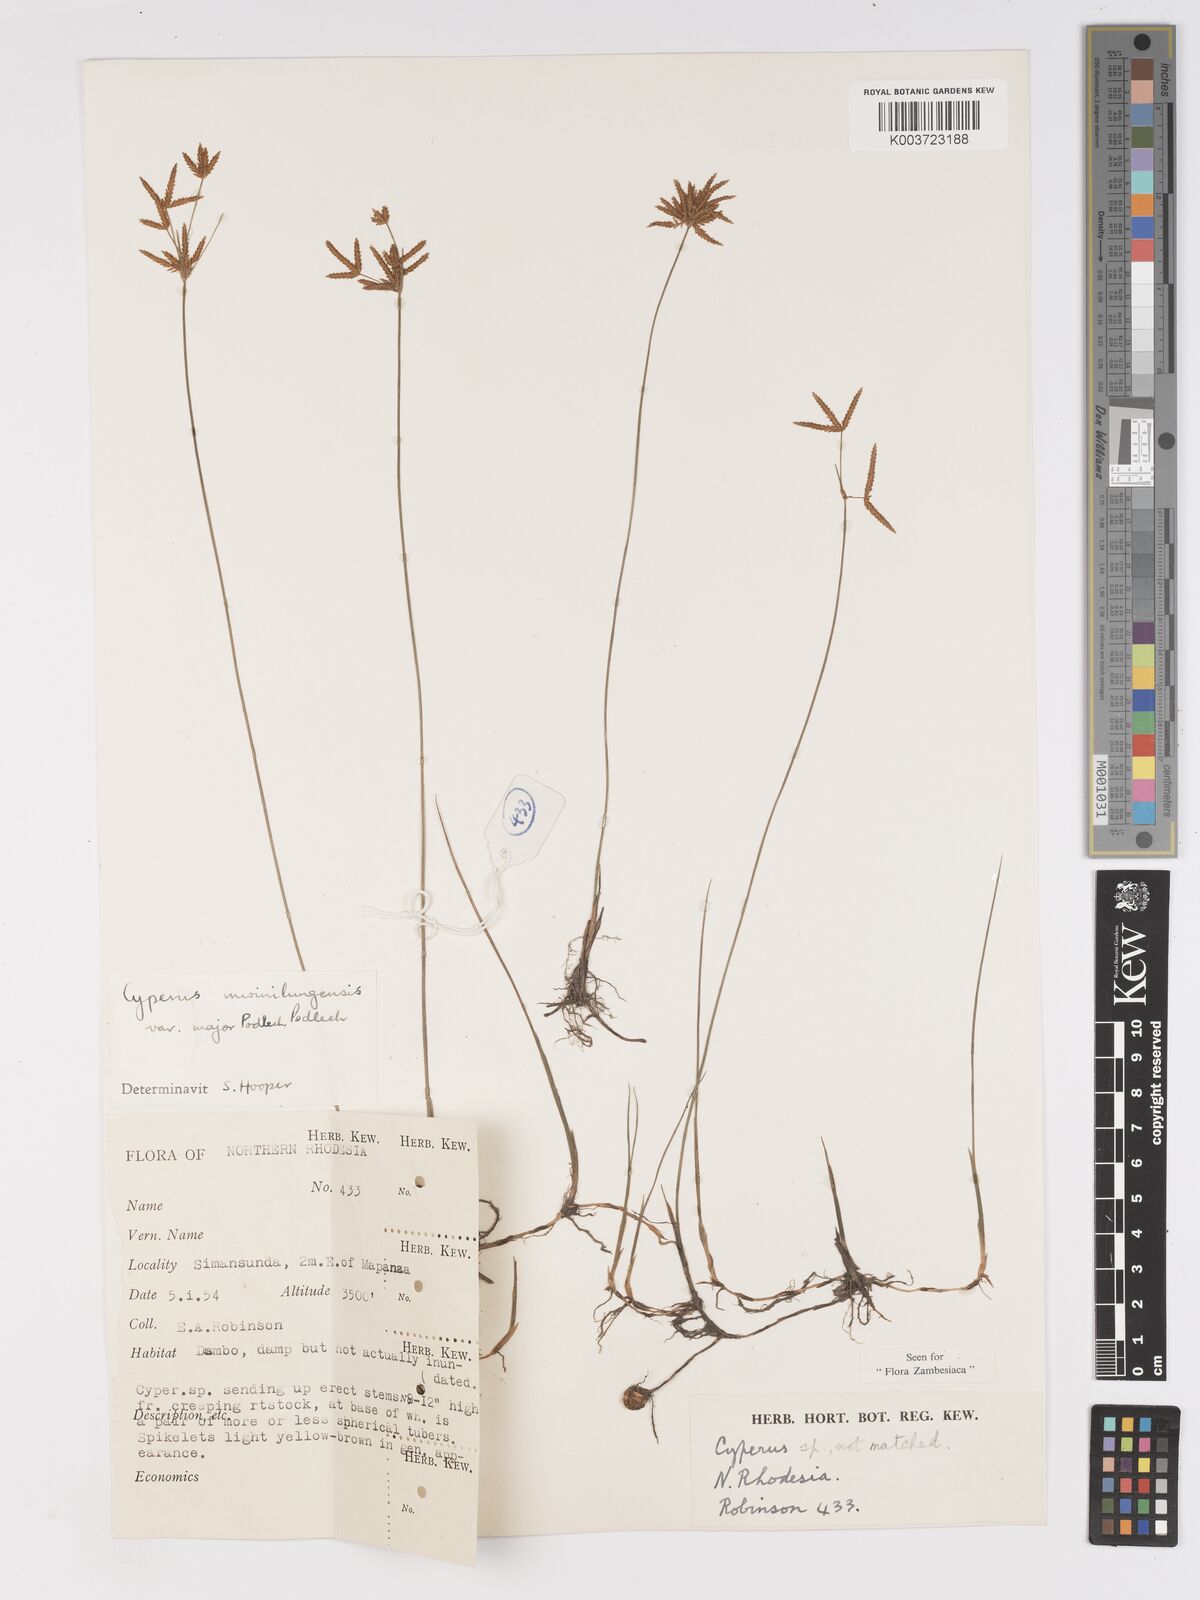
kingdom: Plantae
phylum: Tracheophyta
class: Liliopsida
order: Poales
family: Cyperaceae
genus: Cyperus
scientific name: Cyperus mwinilungensis
